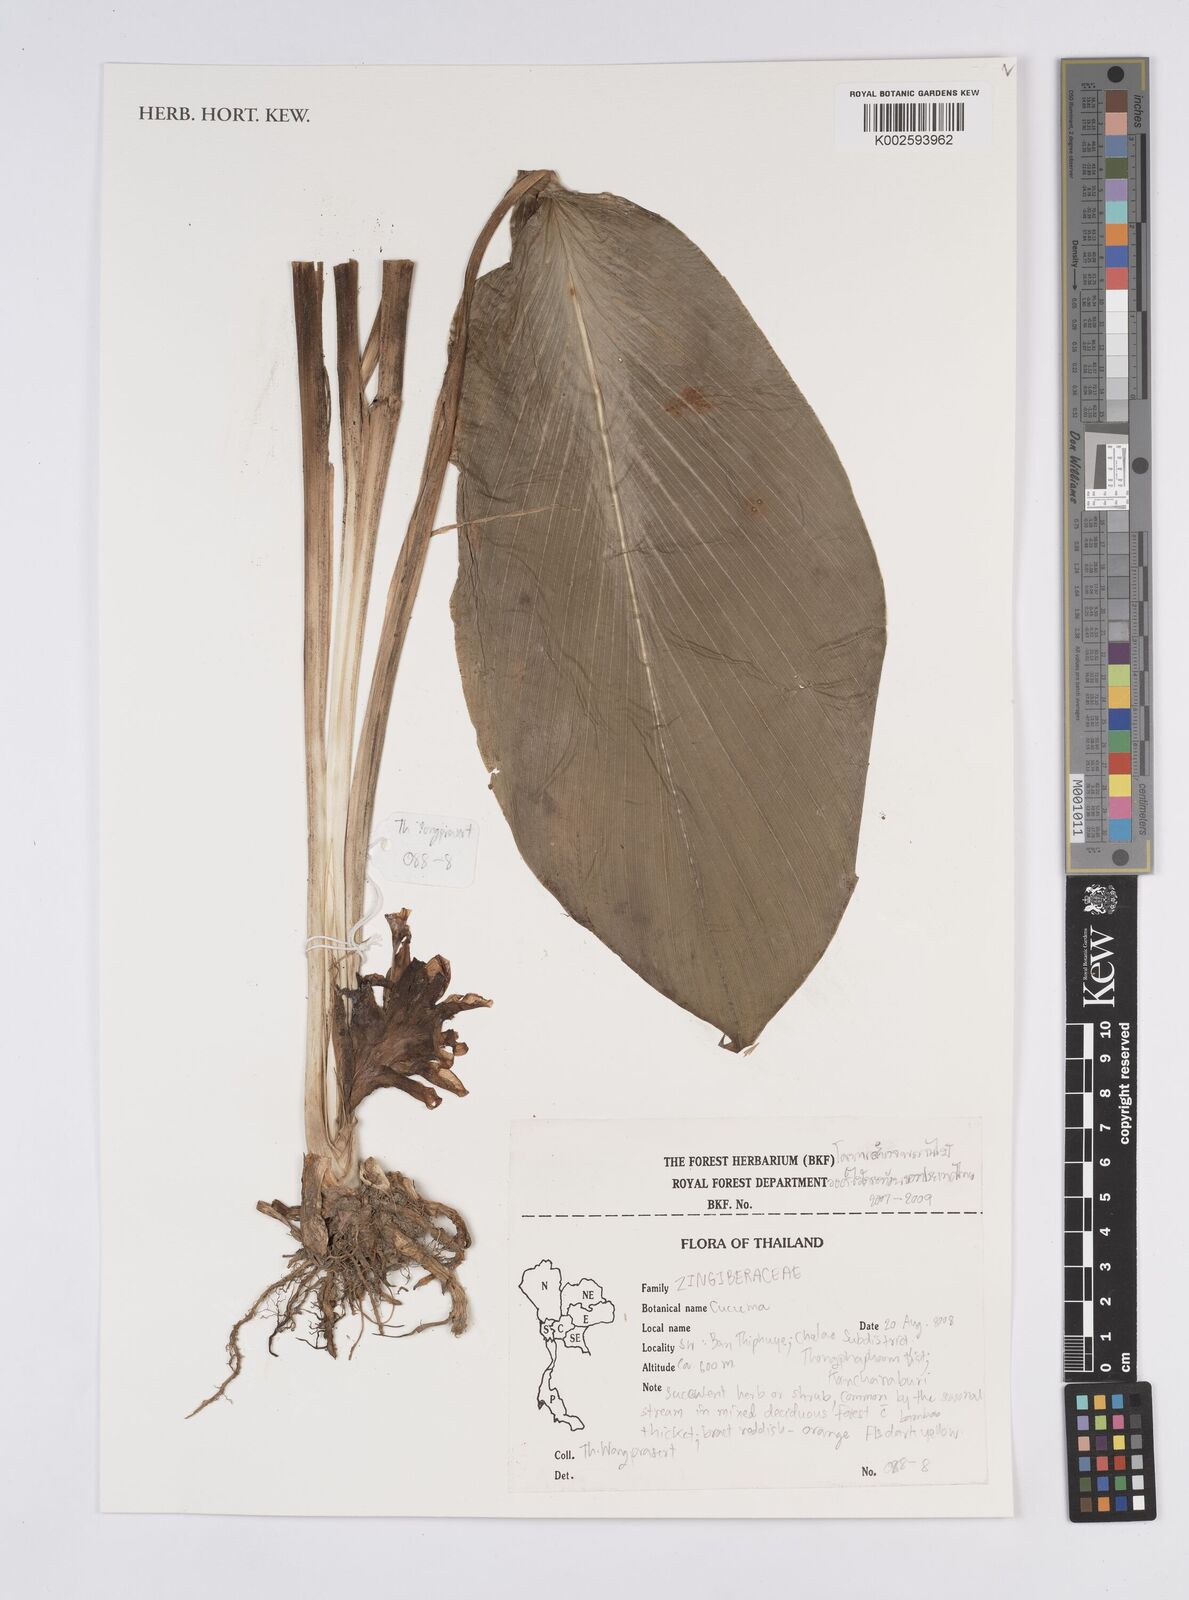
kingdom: Plantae
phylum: Tracheophyta
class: Liliopsida
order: Zingiberales
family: Zingiberaceae
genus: Curcuma
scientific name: Curcuma
